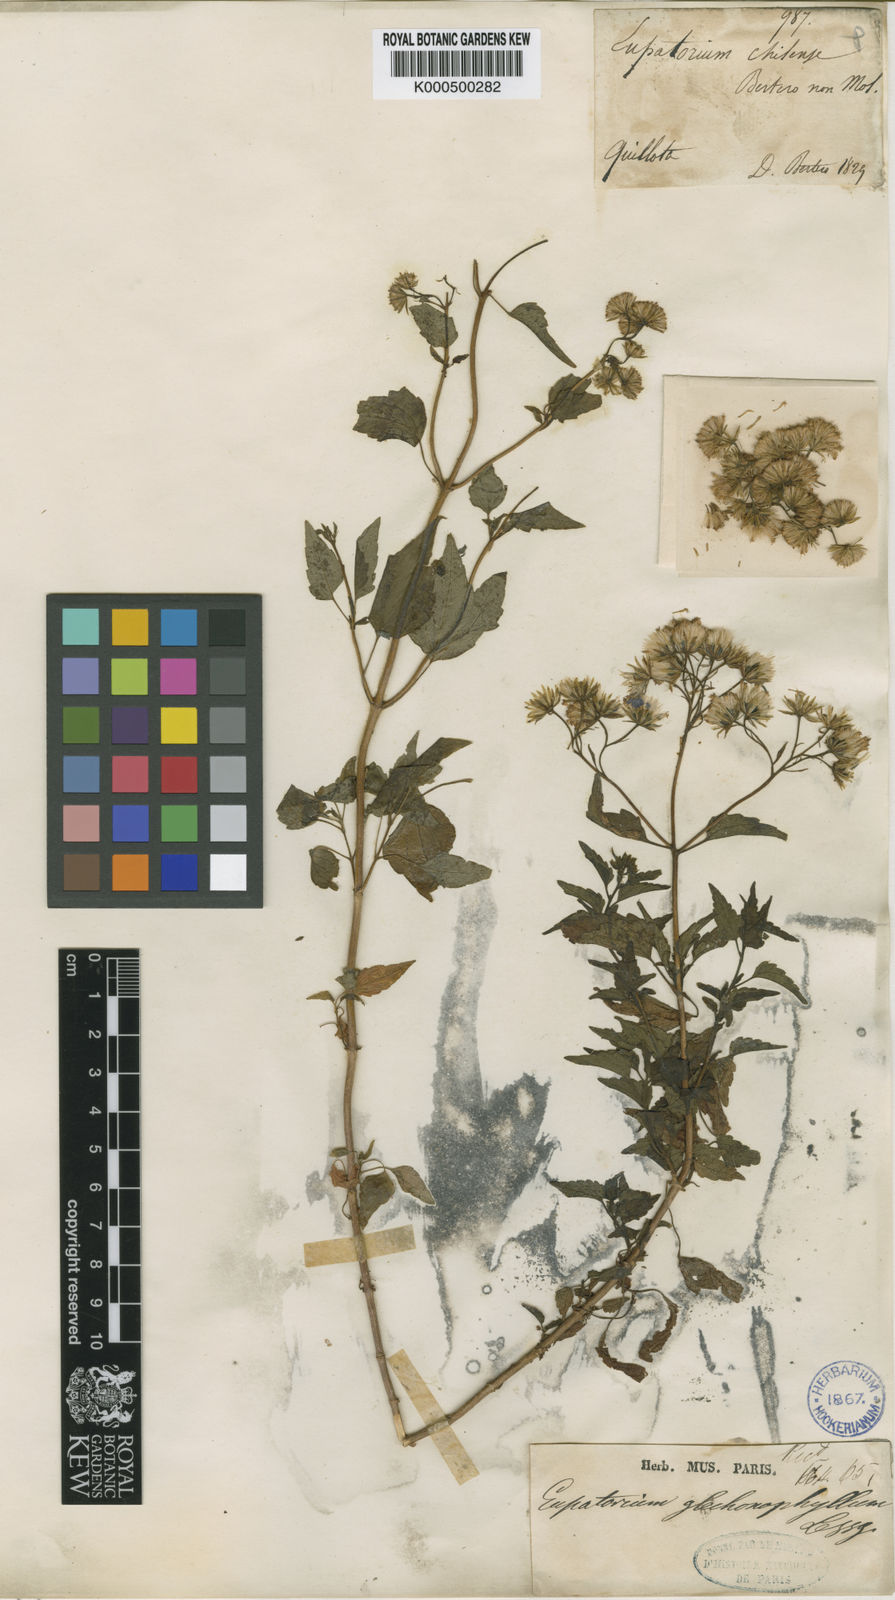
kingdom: Plantae
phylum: Tracheophyta
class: Magnoliopsida
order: Asterales
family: Asteraceae
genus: Ageratina
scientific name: Ageratina glechonophylla
